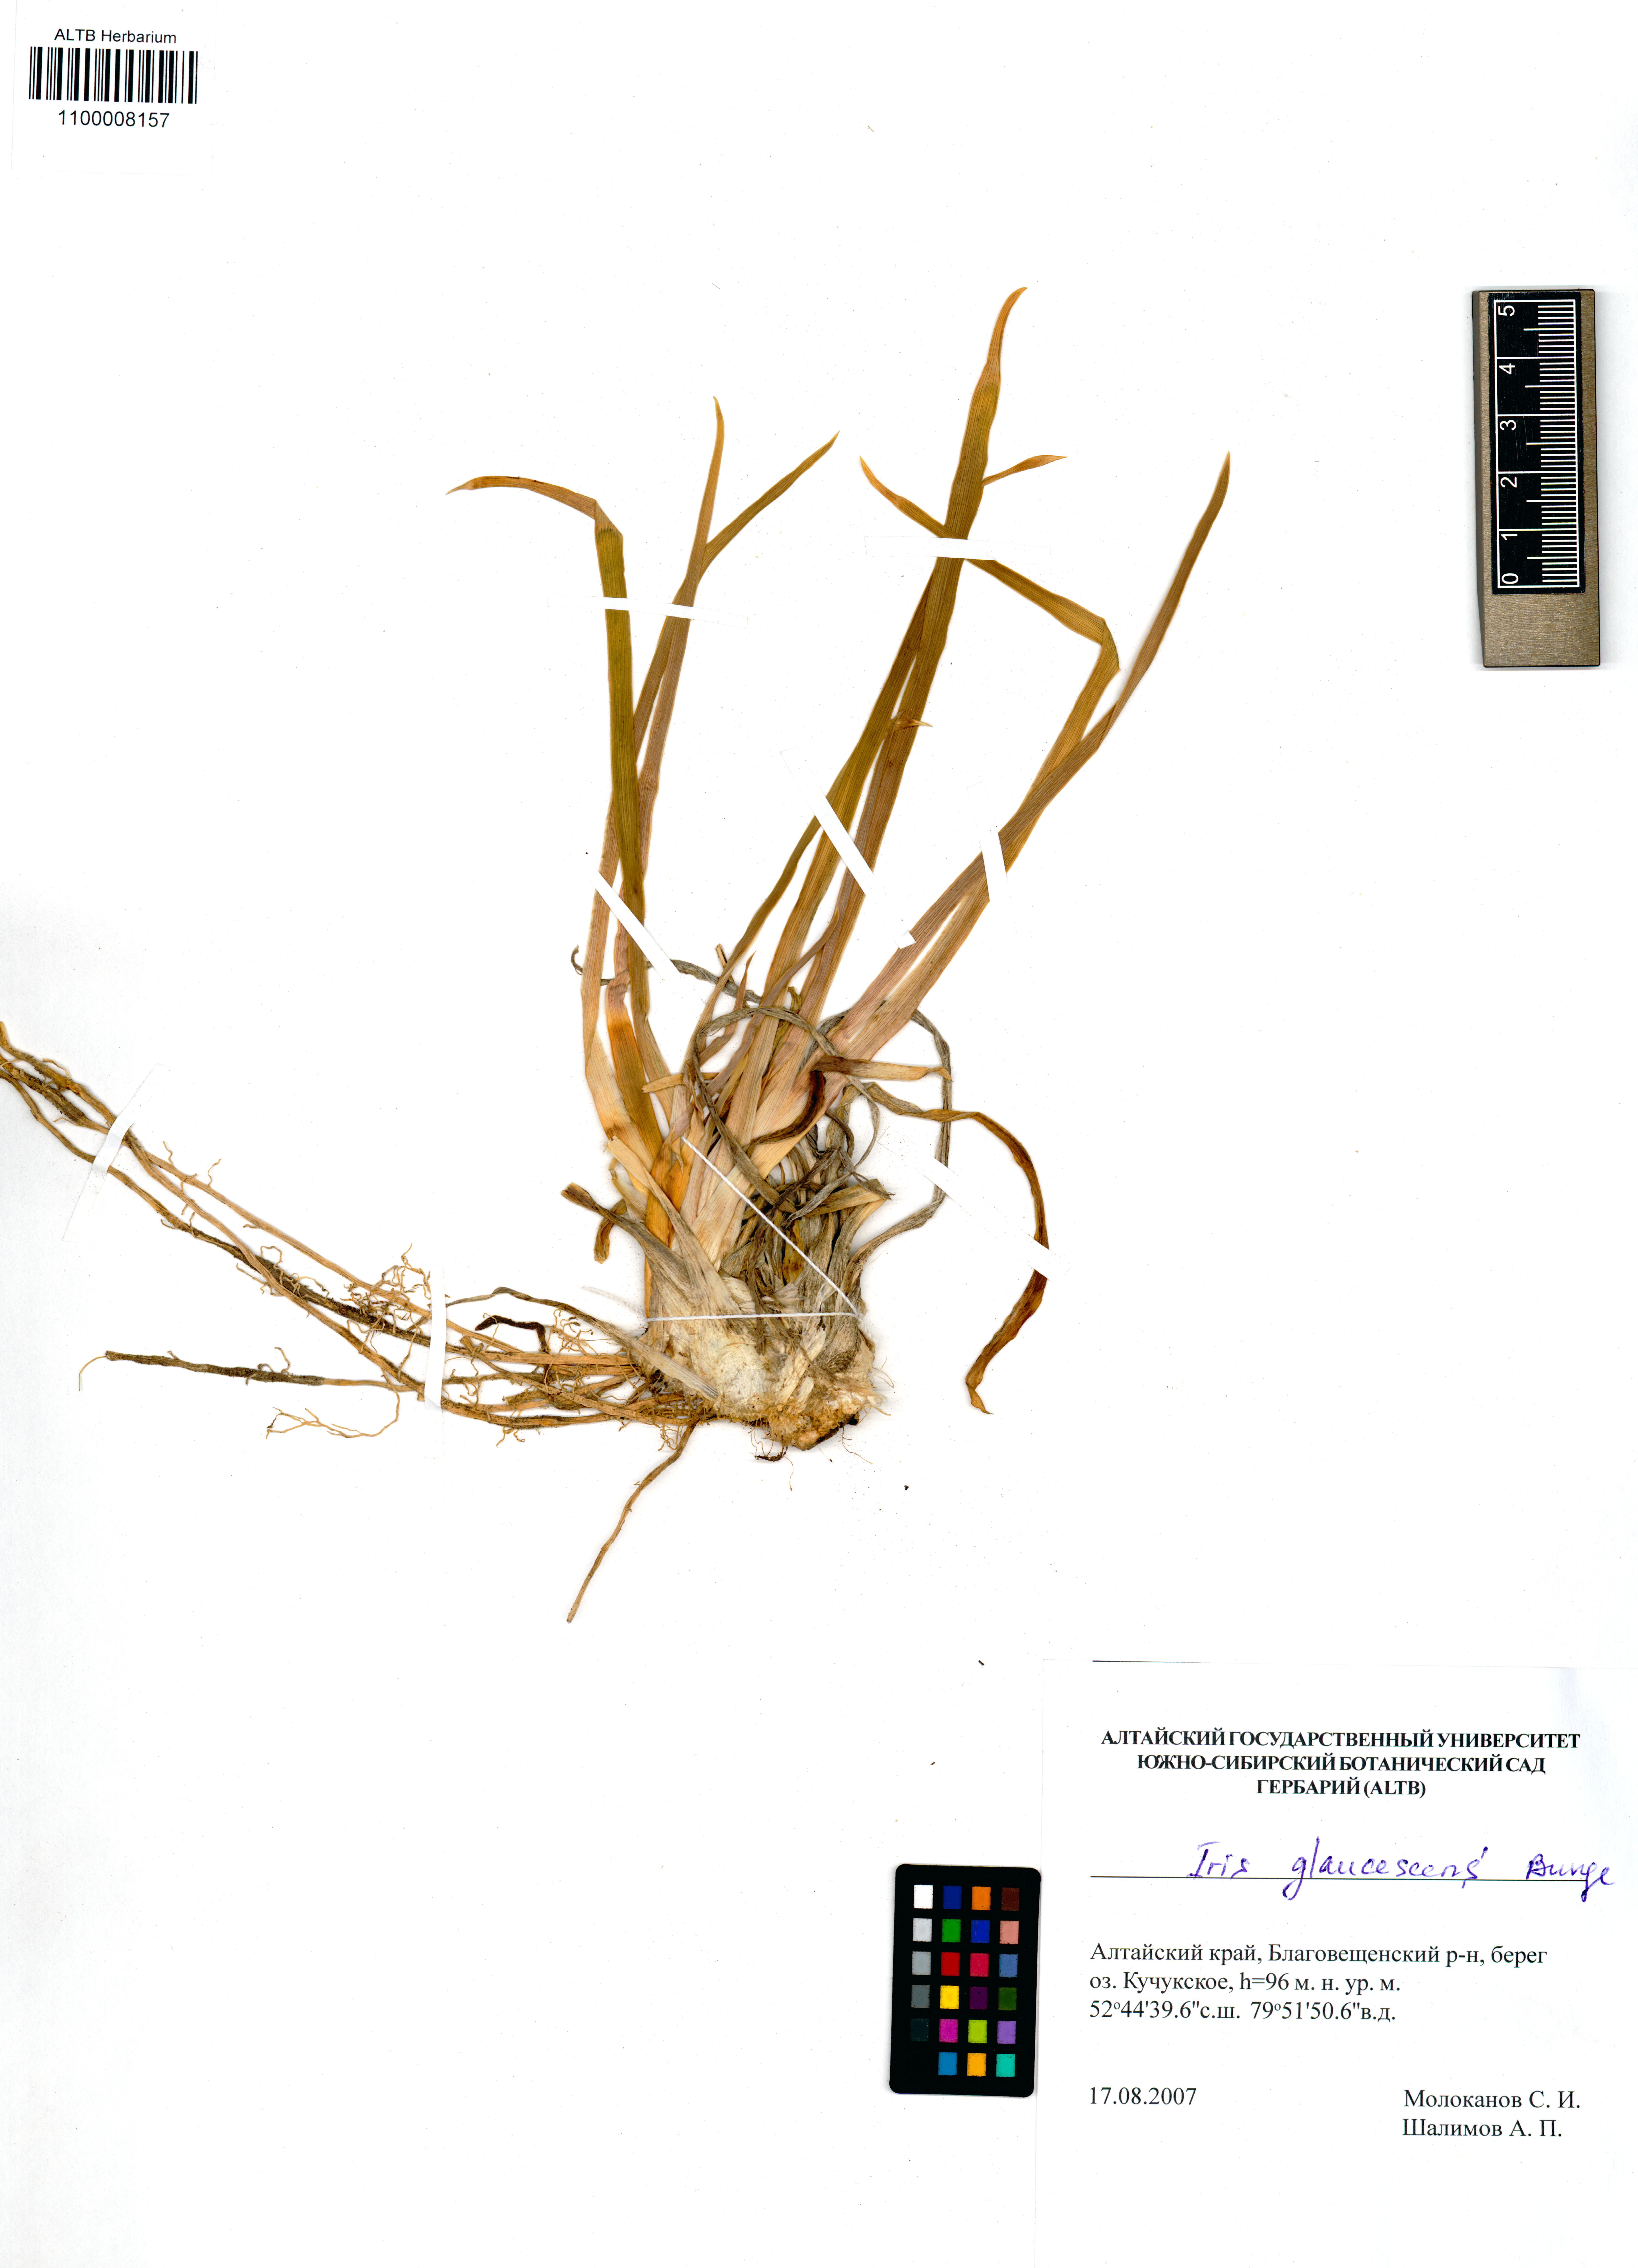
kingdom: Plantae
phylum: Tracheophyta
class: Liliopsida
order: Asparagales
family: Iridaceae
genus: Iris
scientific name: Iris glaucescens
